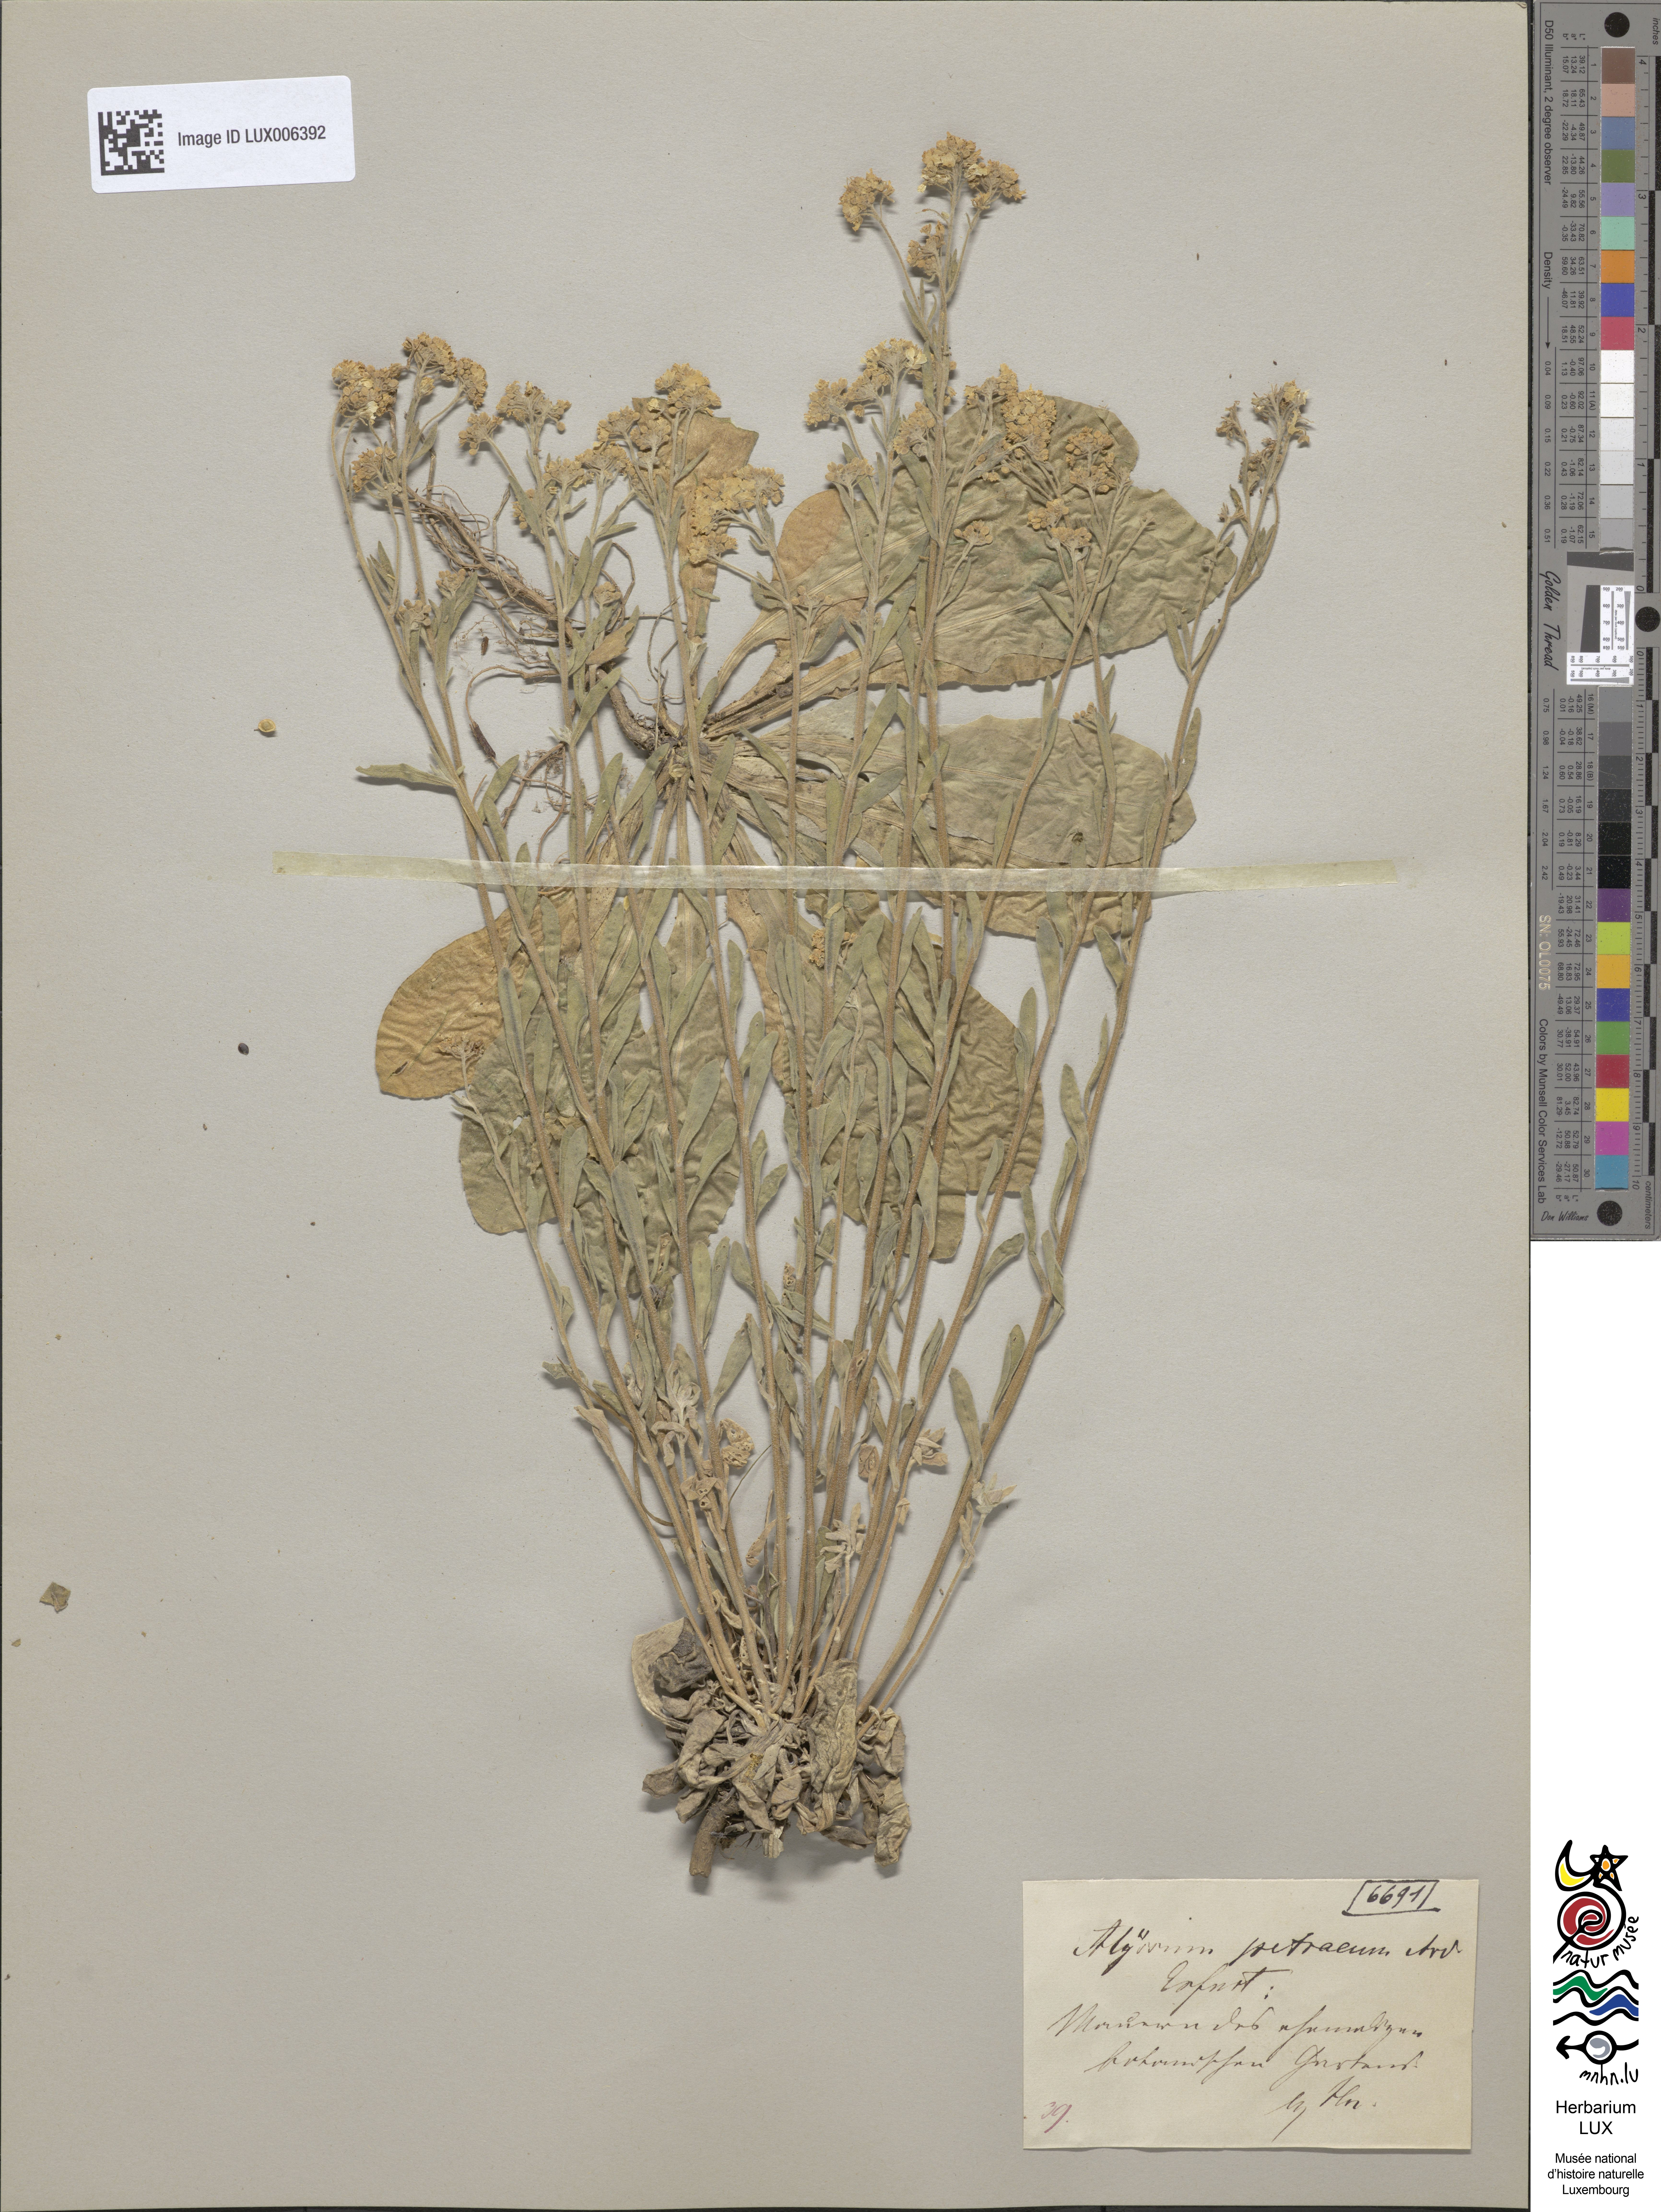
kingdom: Plantae
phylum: Tracheophyta
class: Magnoliopsida
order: Brassicales
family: Brassicaceae
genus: Aurinia
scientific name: Aurinia petraea
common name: Goldentuft
